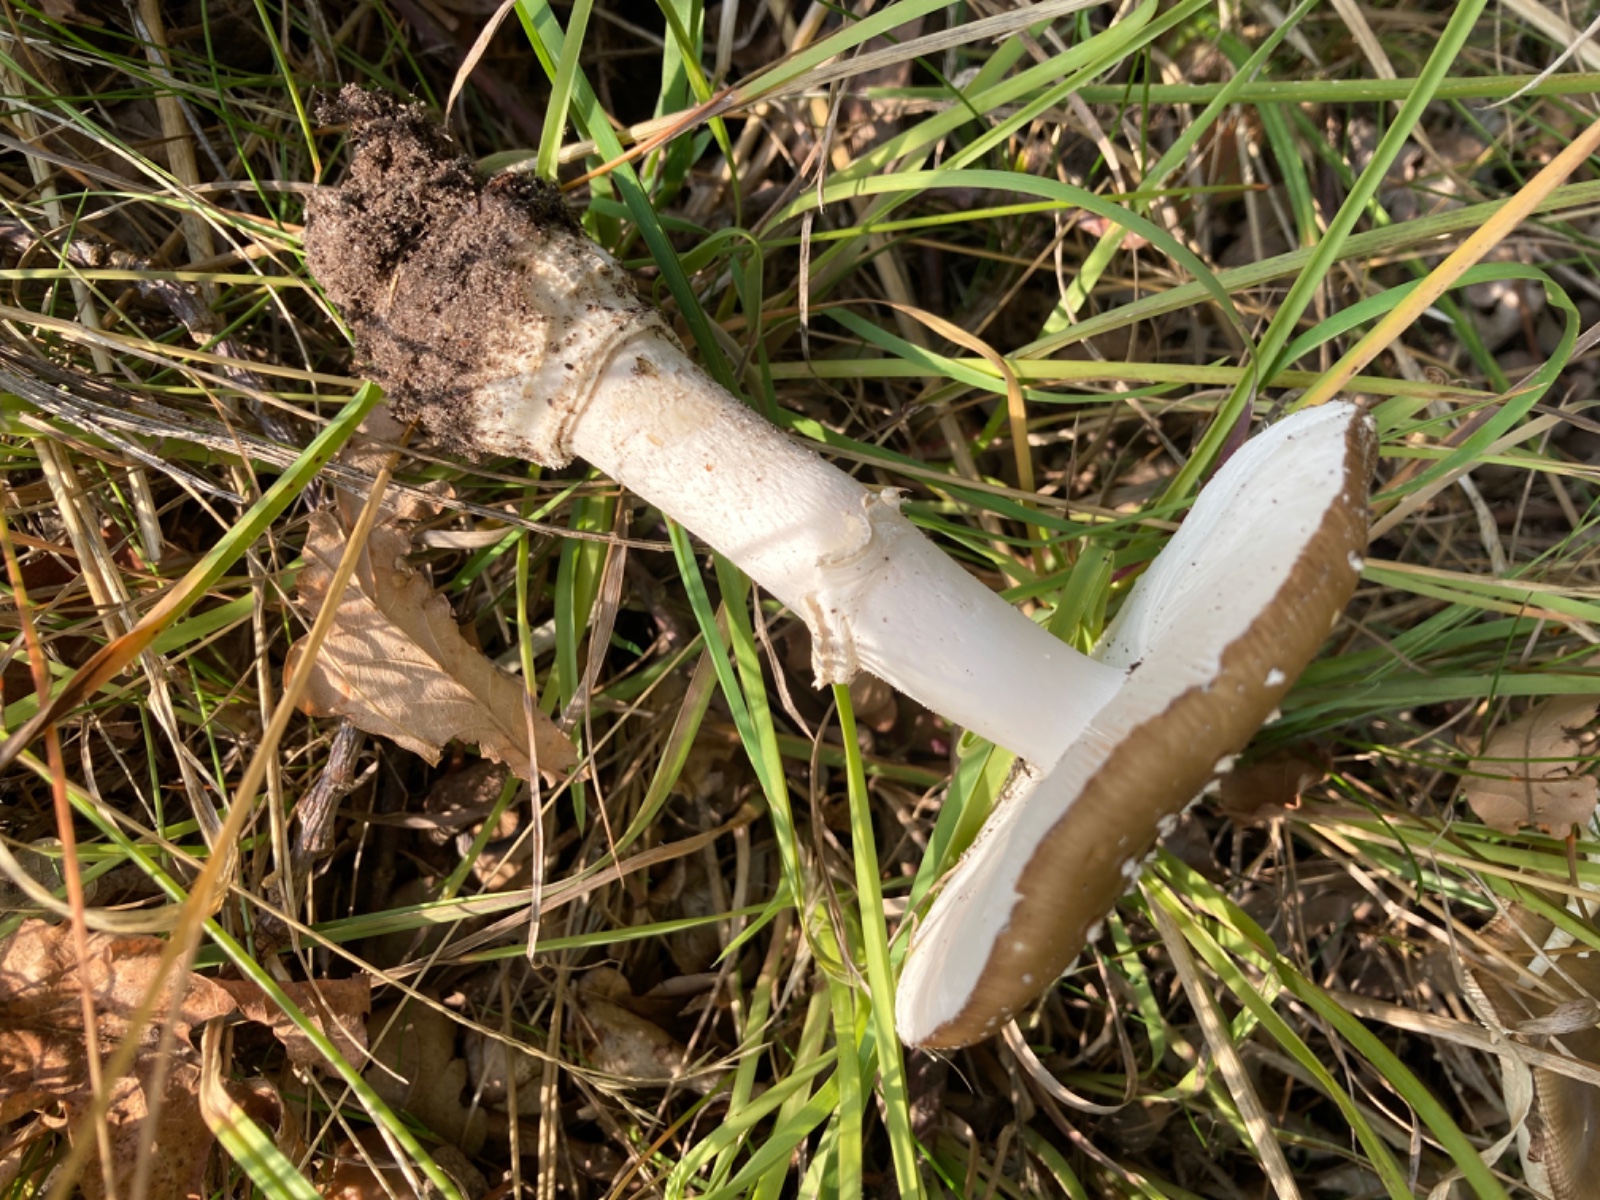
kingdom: Fungi
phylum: Basidiomycota
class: Agaricomycetes
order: Agaricales
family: Amanitaceae
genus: Amanita
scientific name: Amanita pantherina
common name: panter-fluesvamp
